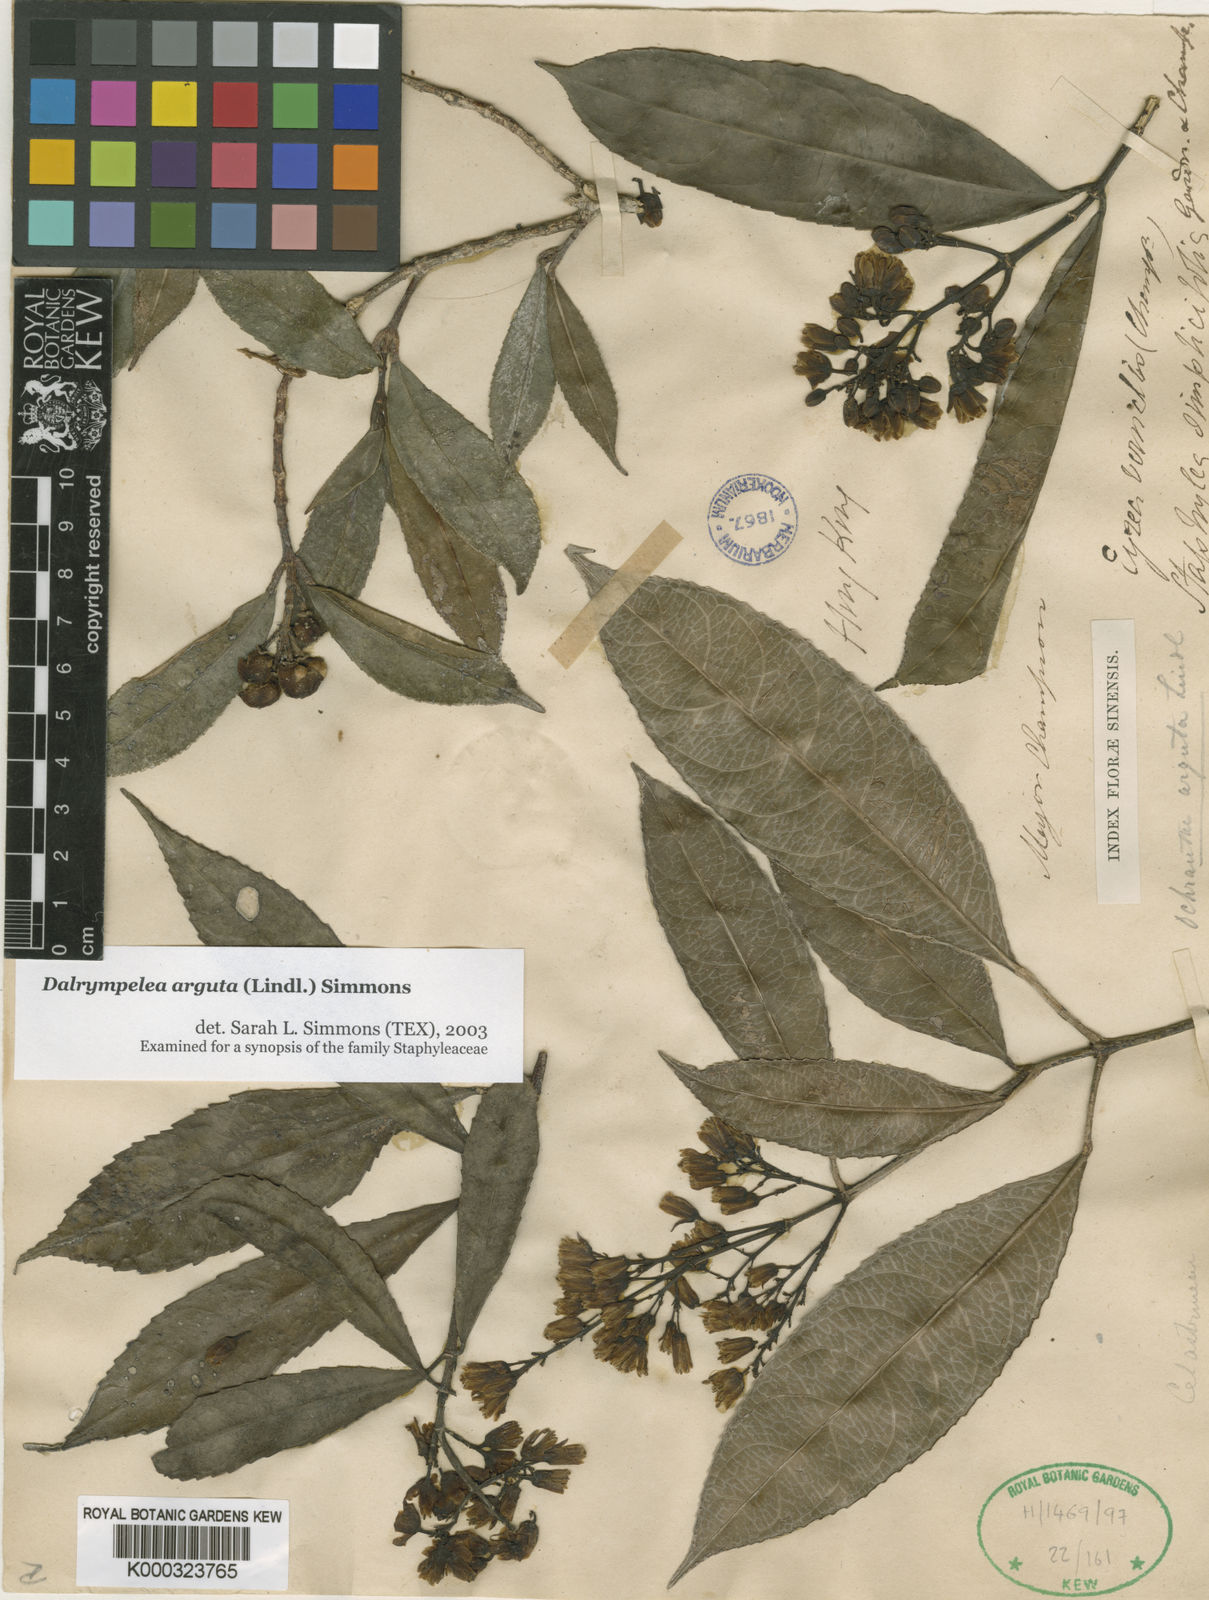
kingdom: Plantae
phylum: Tracheophyta
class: Magnoliopsida
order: Crossosomatales
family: Staphyleaceae
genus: Turpinia
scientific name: Turpinia arguta
